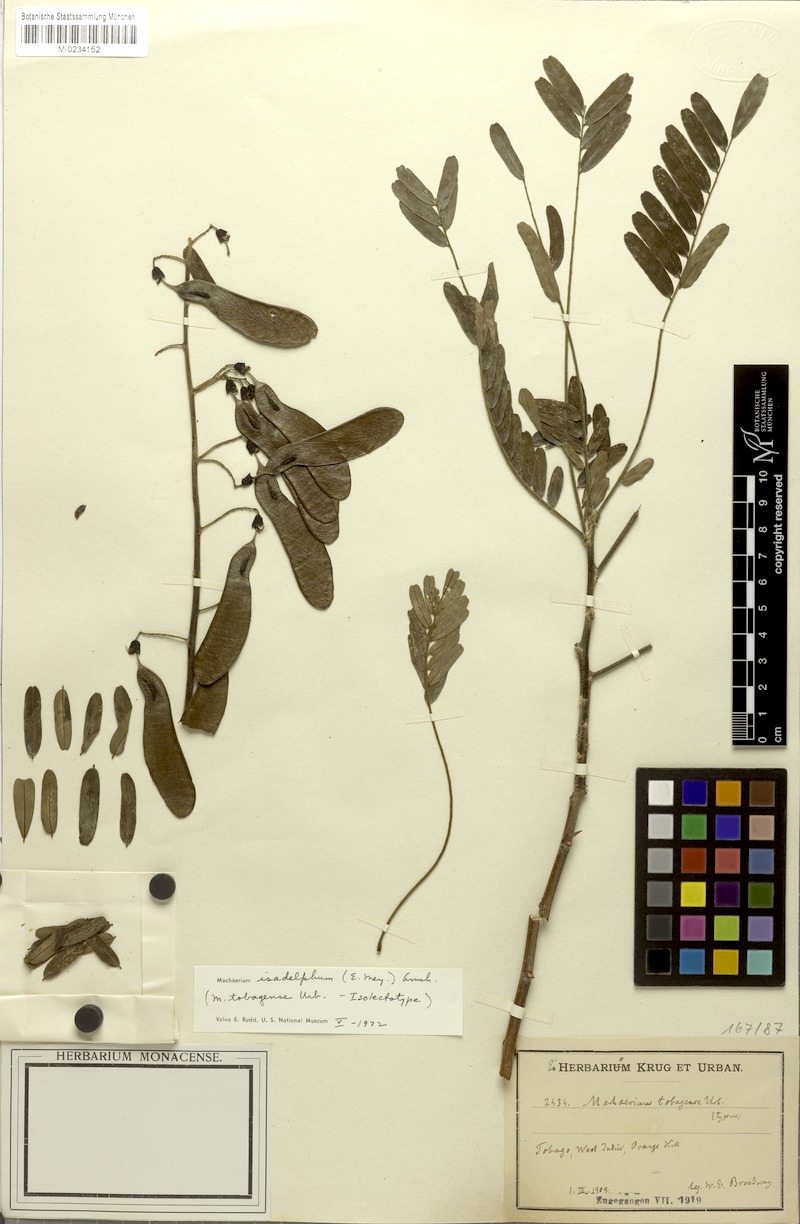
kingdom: Plantae
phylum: Tracheophyta
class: Magnoliopsida
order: Fabales
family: Fabaceae
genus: Machaerium
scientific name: Machaerium isadelphum
